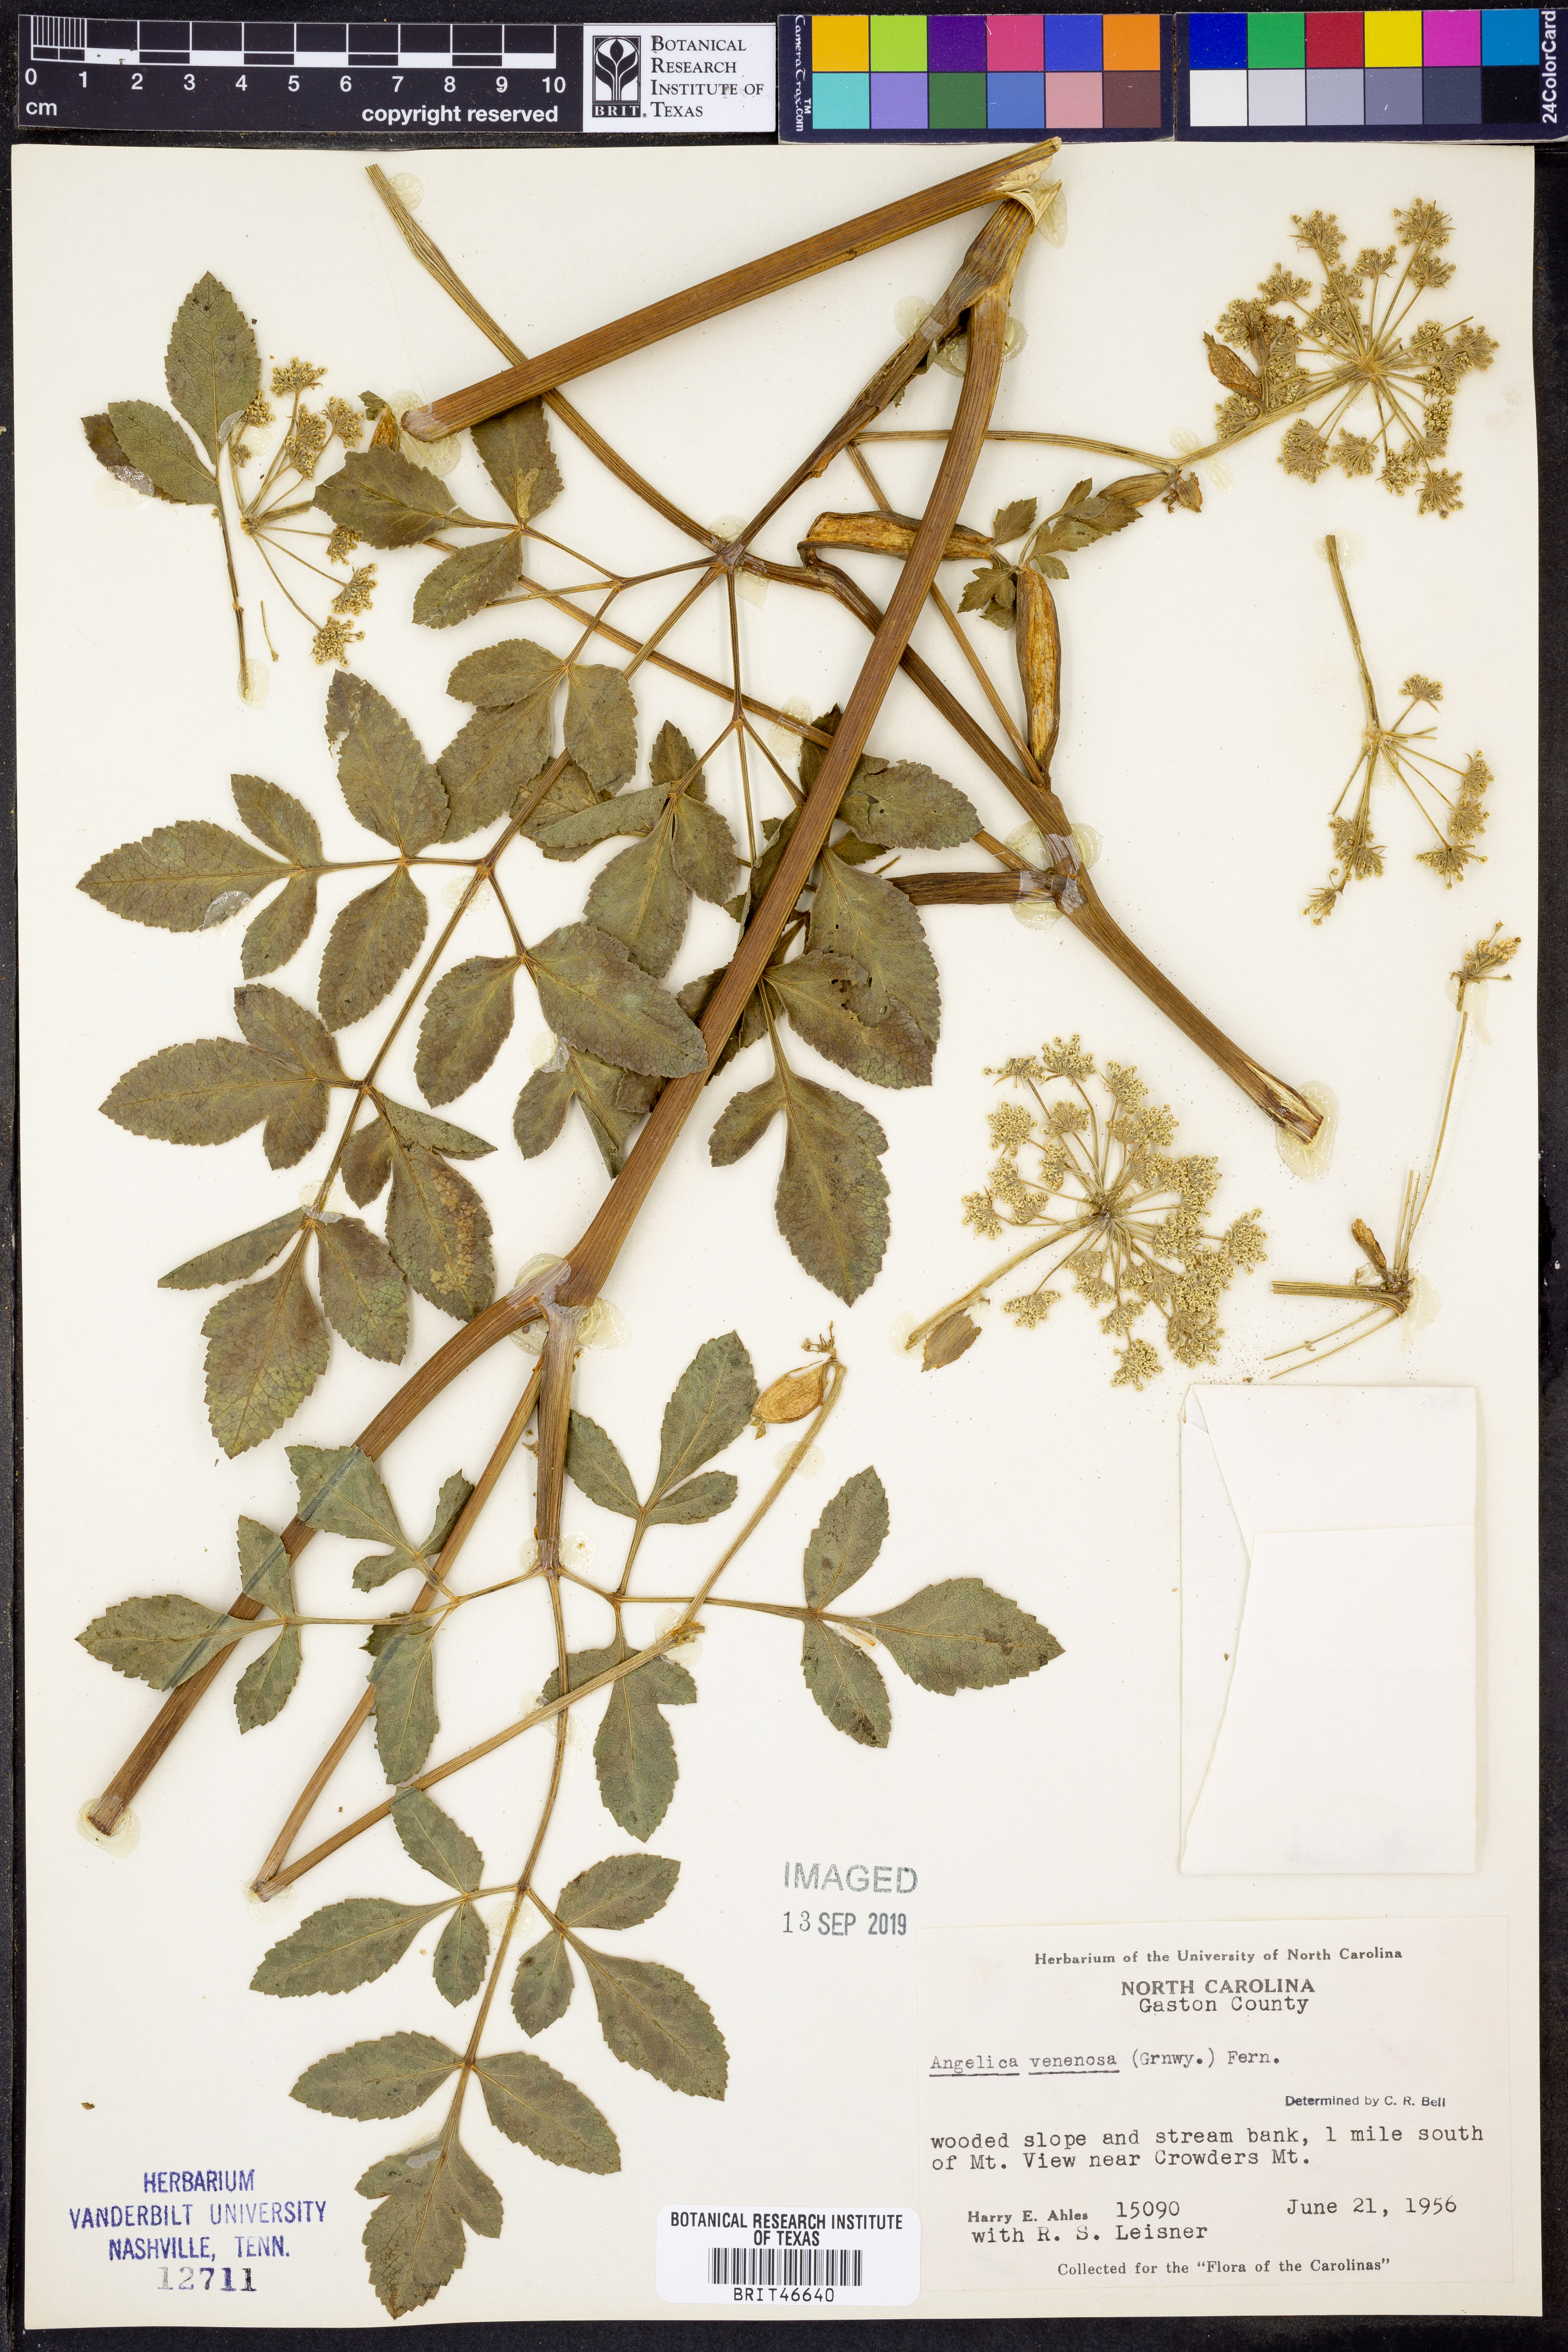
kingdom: Plantae
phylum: Tracheophyta
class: Magnoliopsida
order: Apiales
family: Apiaceae
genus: Angelica
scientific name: Angelica venenosa
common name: Hairy angelica
